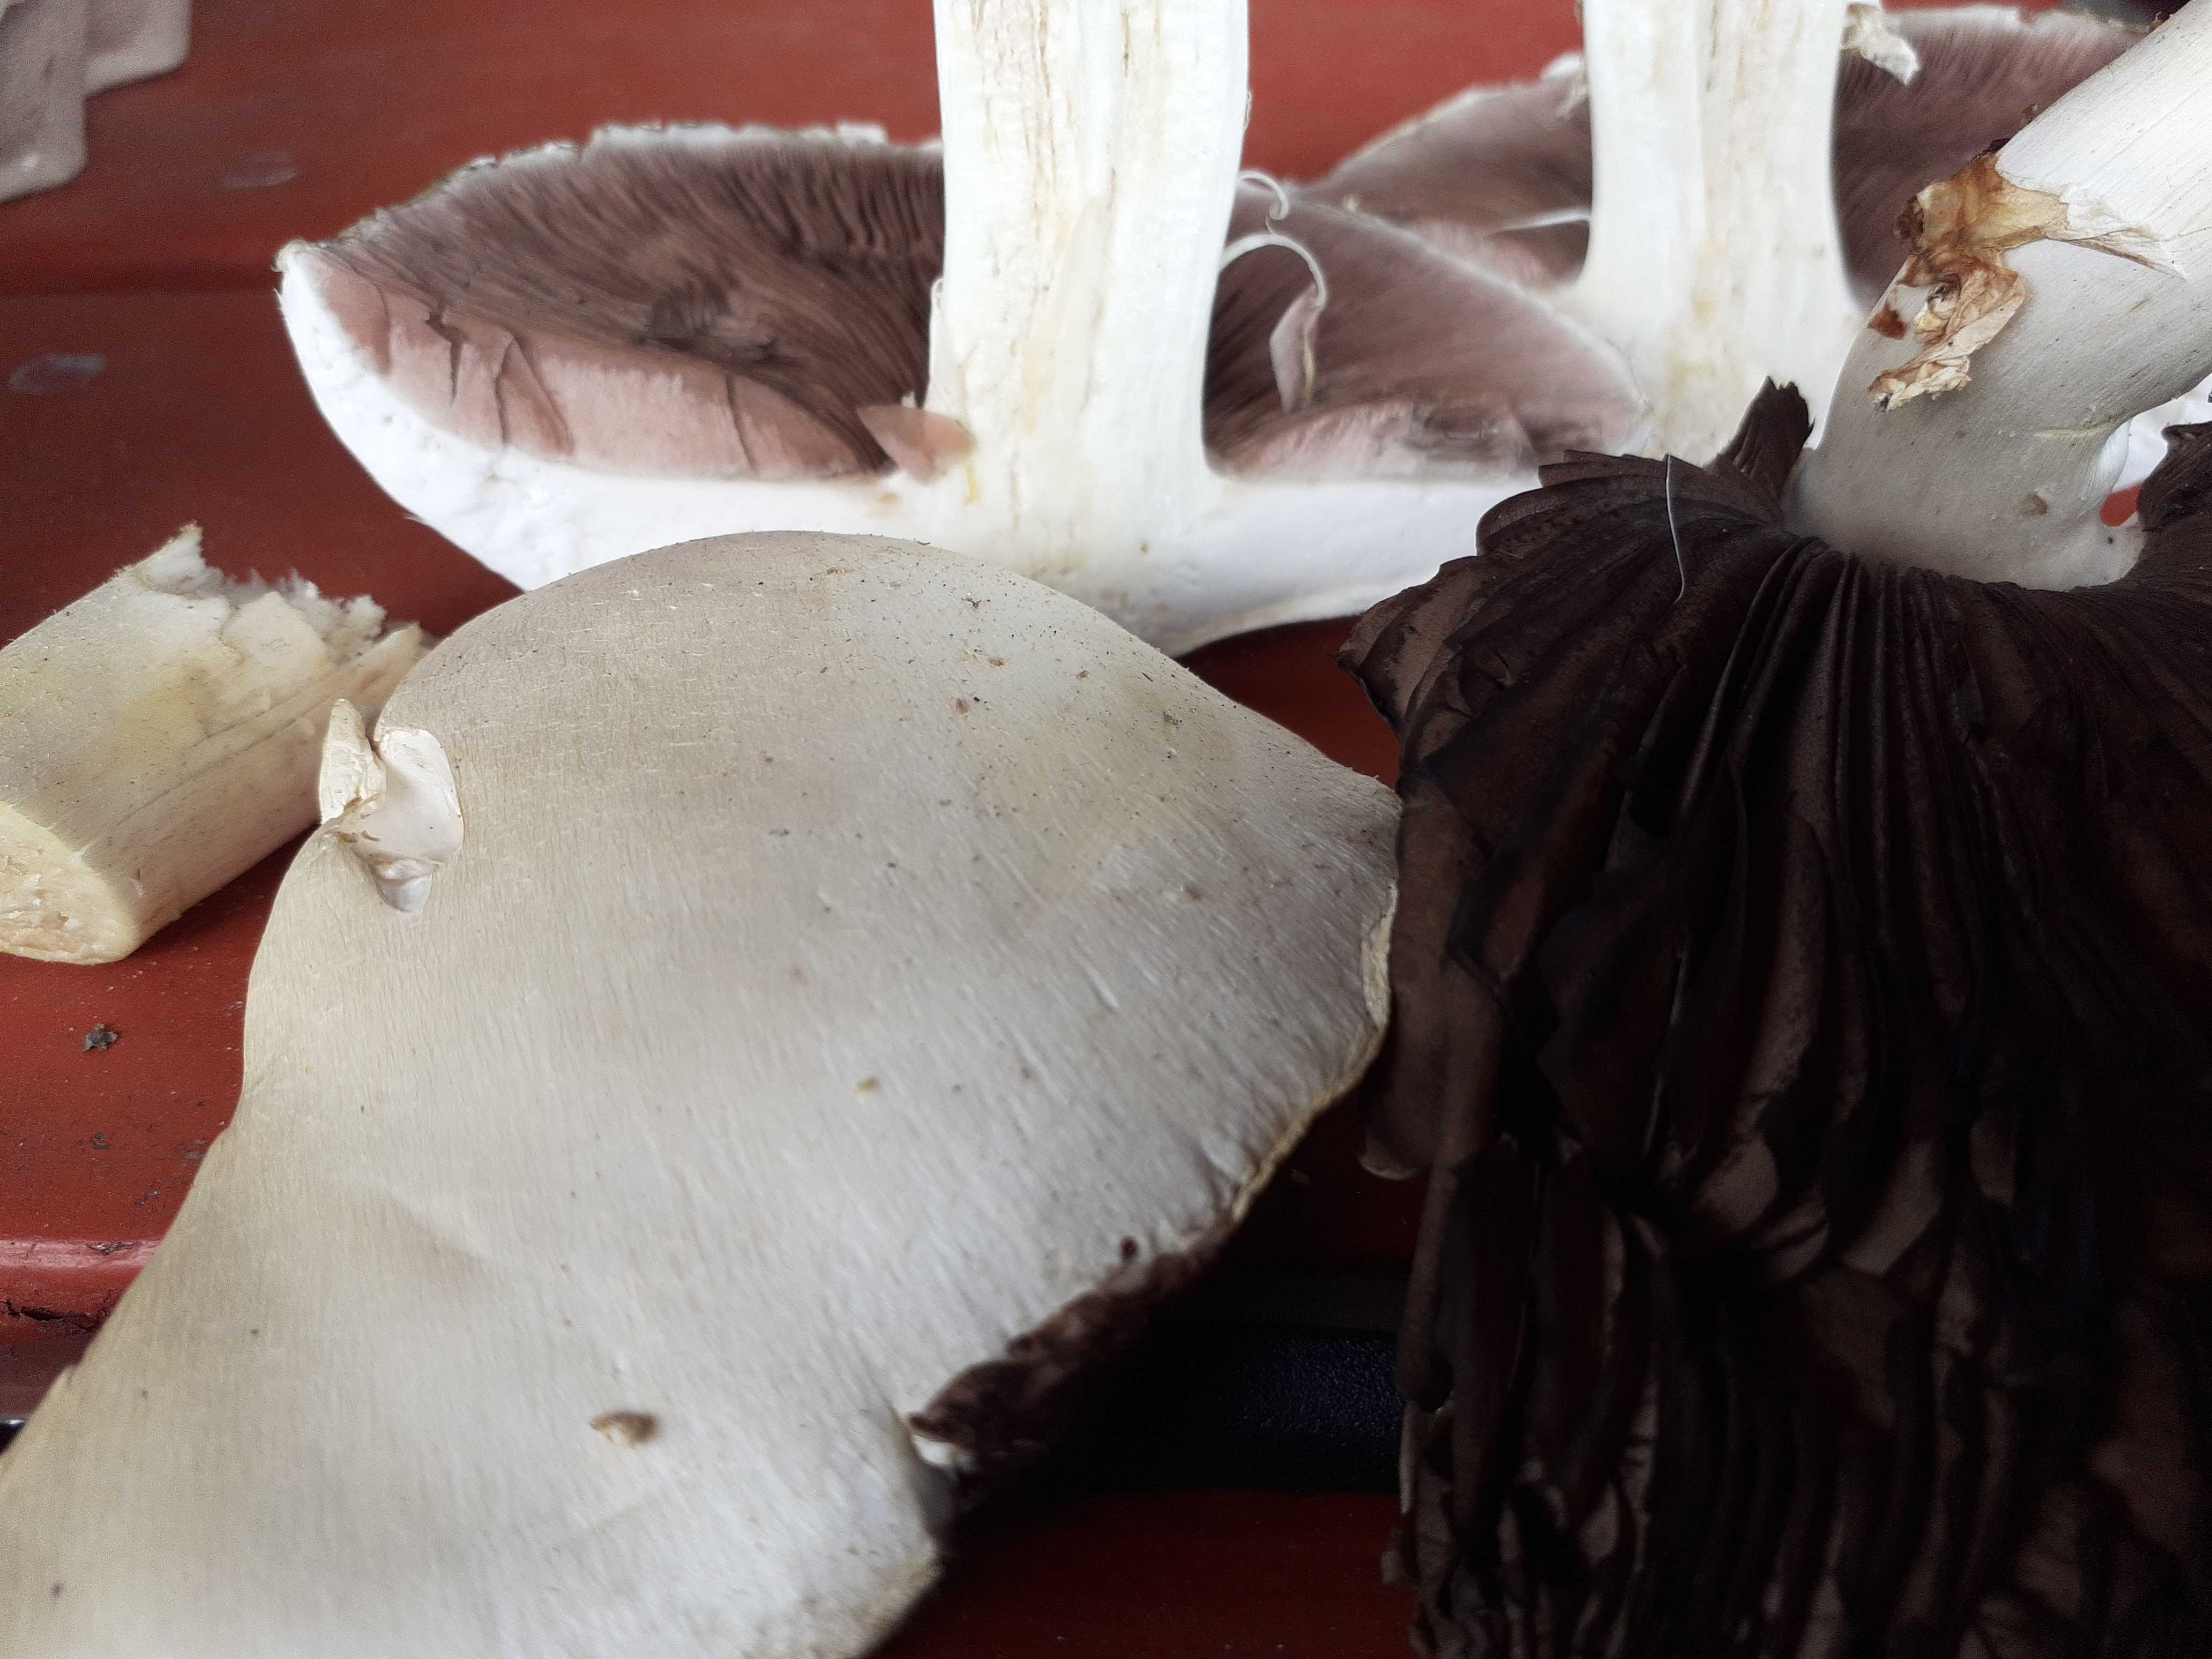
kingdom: Fungi
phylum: Basidiomycota
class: Agaricomycetes
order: Agaricales
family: Agaricaceae
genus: Agaricus
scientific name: Agaricus
